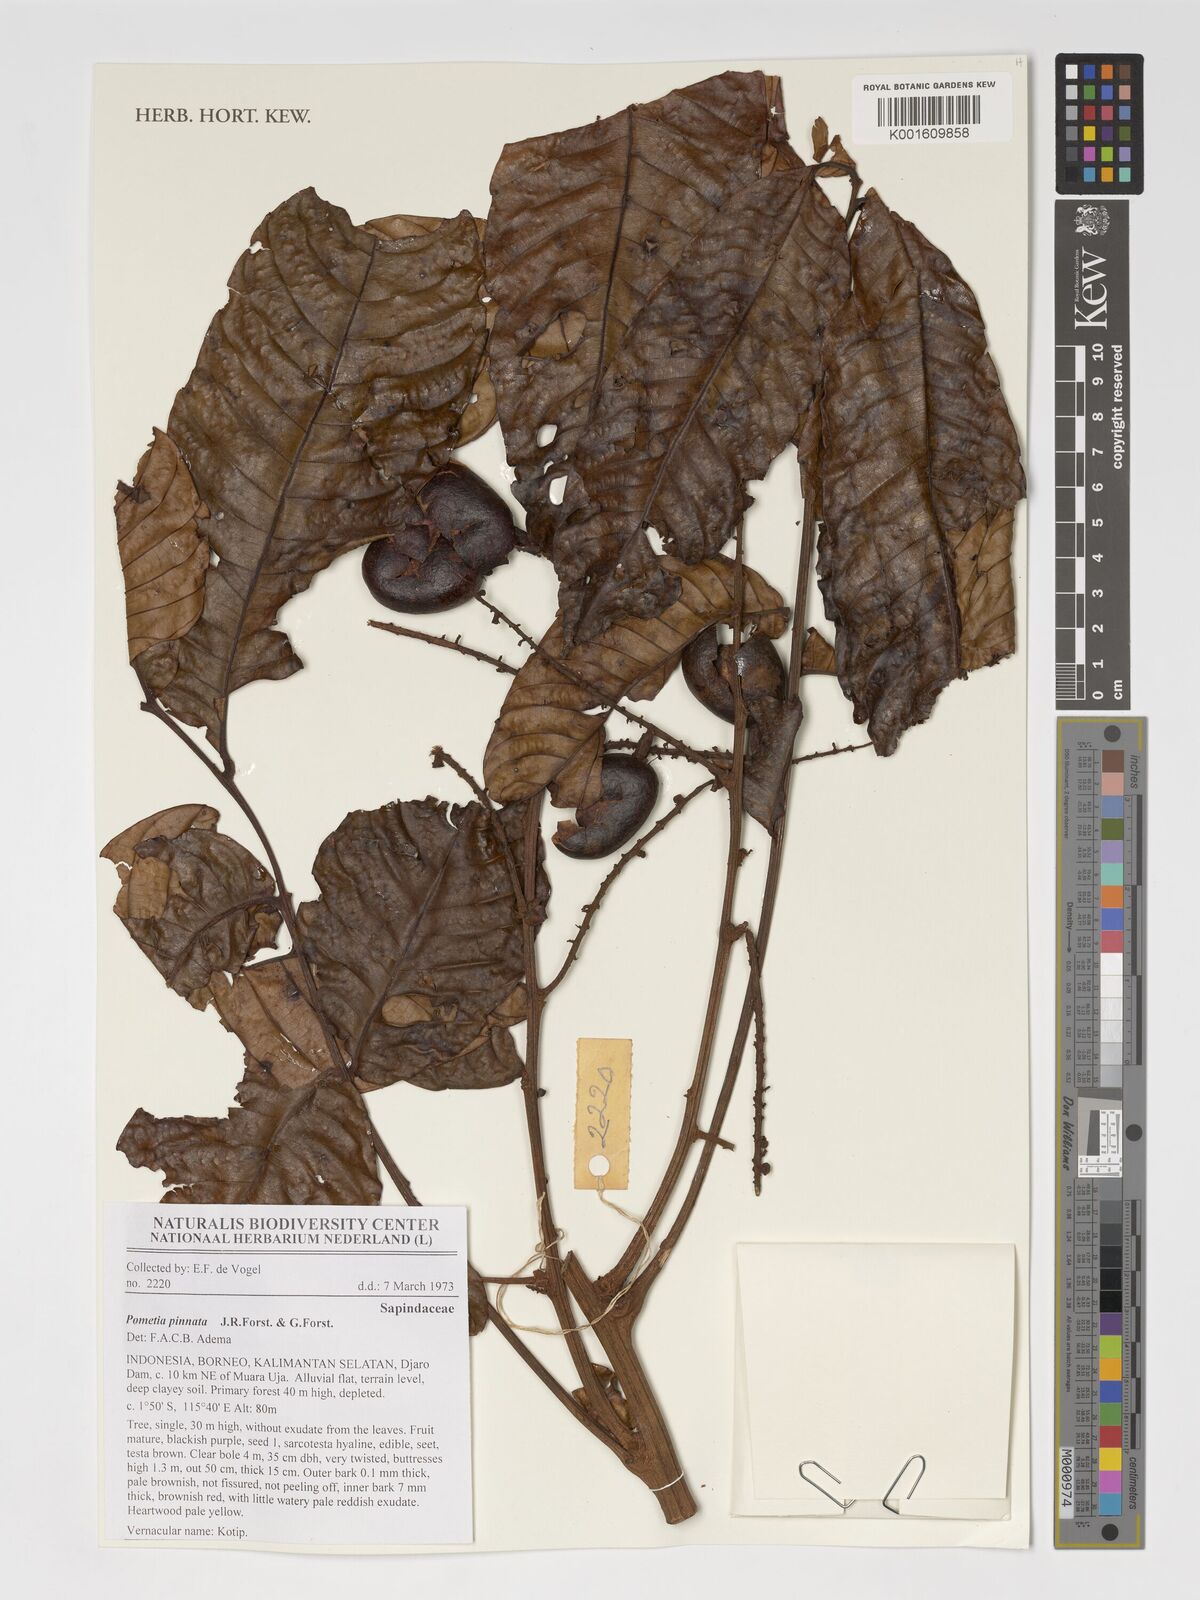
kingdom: Plantae
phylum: Tracheophyta
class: Magnoliopsida
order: Sapindales
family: Sapindaceae
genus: Pometia
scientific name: Pometia pinnata
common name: Oceanic lychee
